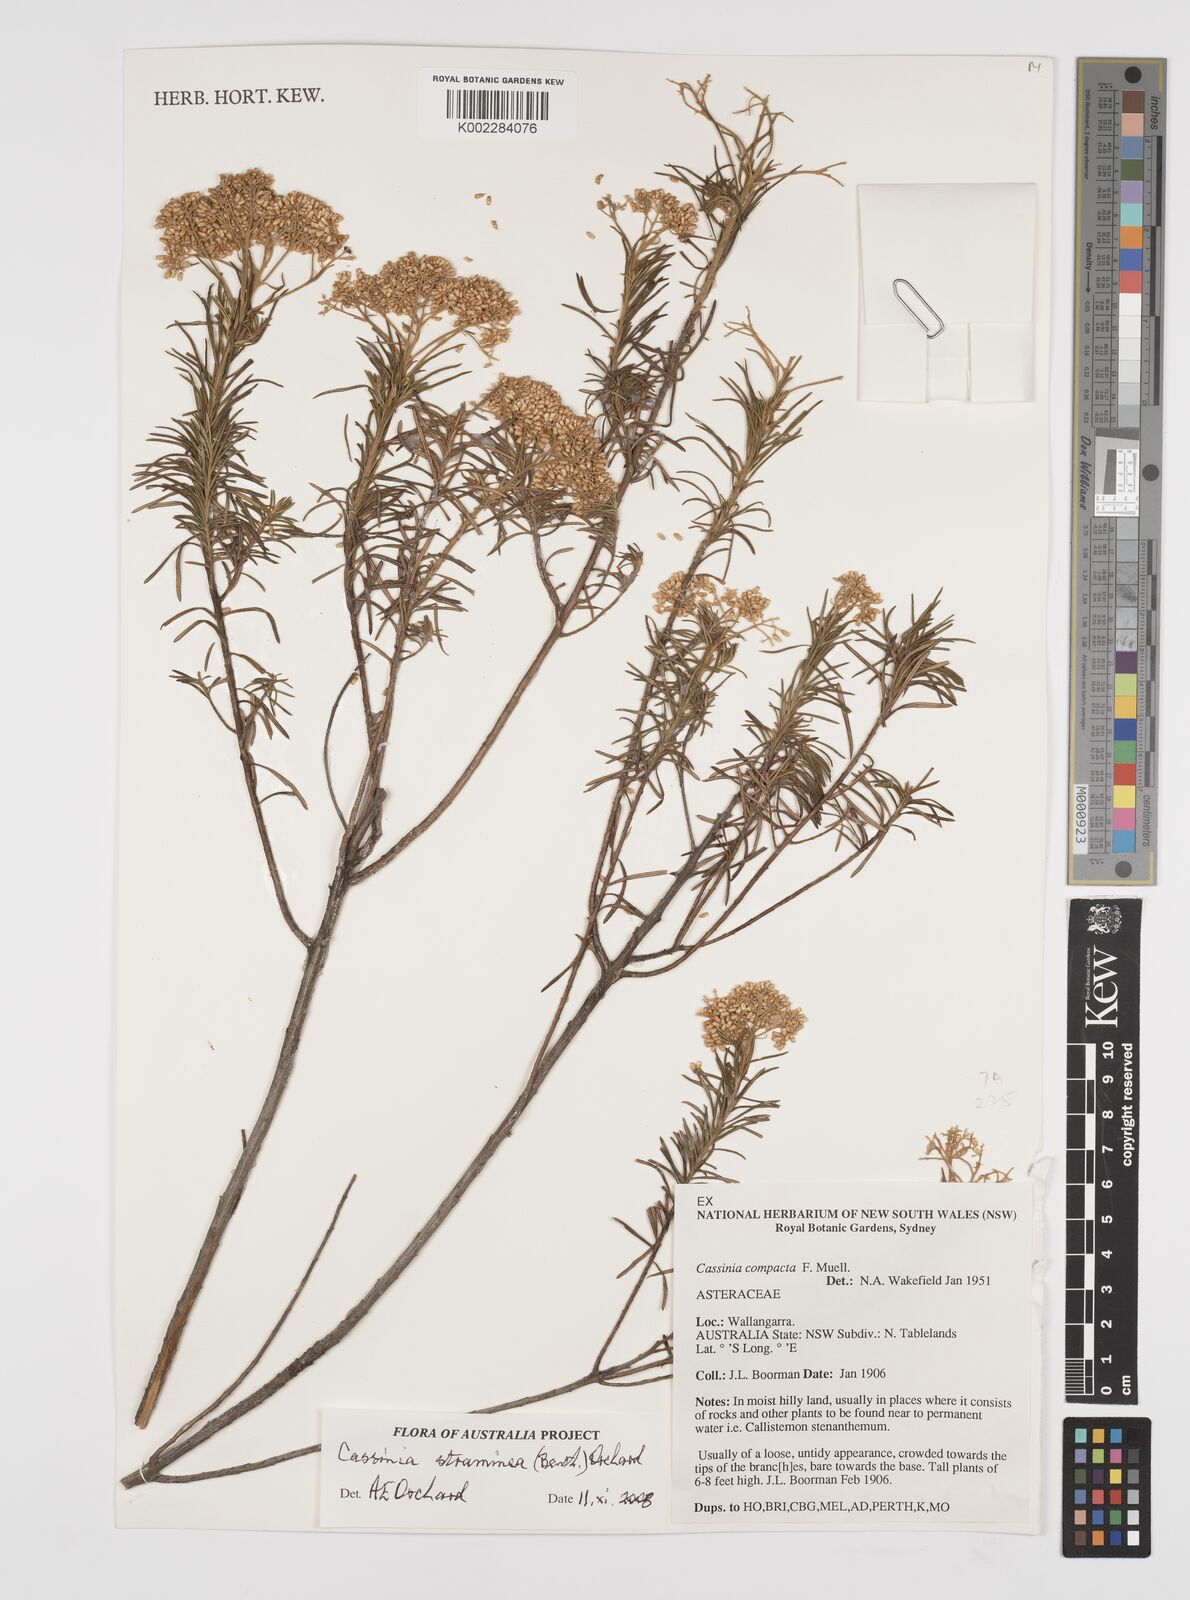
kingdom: Plantae
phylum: Tracheophyta
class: Magnoliopsida
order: Asterales
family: Asteraceae
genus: Cassinia
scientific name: Cassinia straminea
